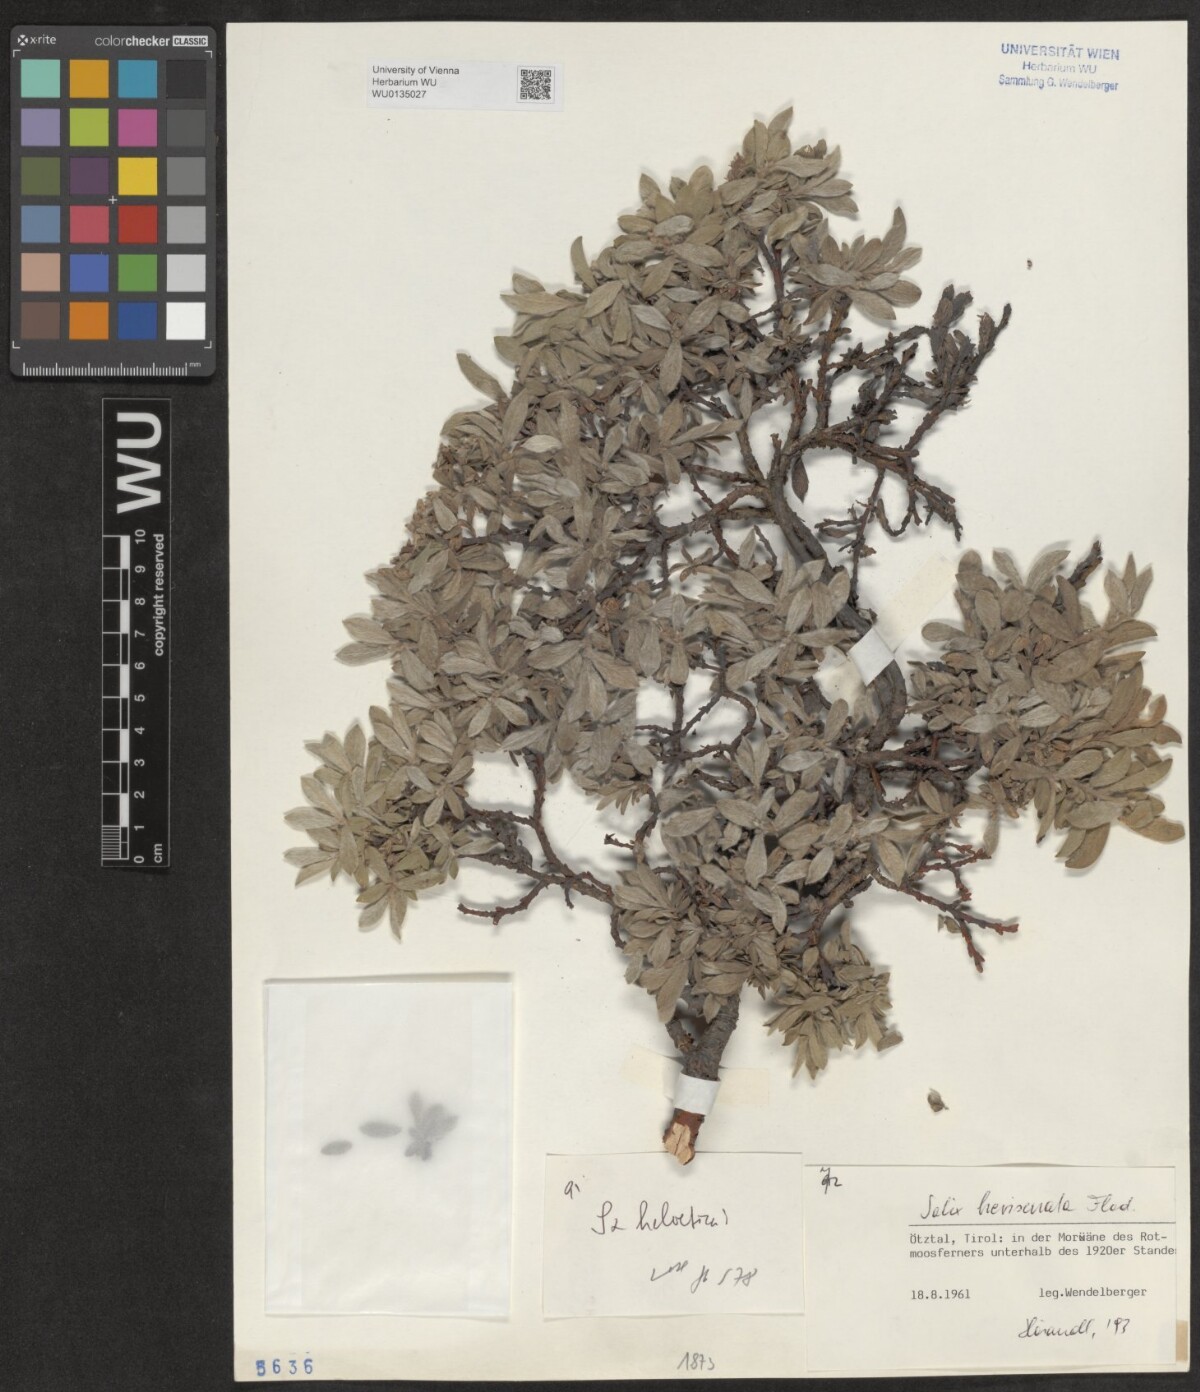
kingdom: Plantae
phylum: Tracheophyta
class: Magnoliopsida
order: Malpighiales
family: Salicaceae
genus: Salix
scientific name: Salix breviserrata
